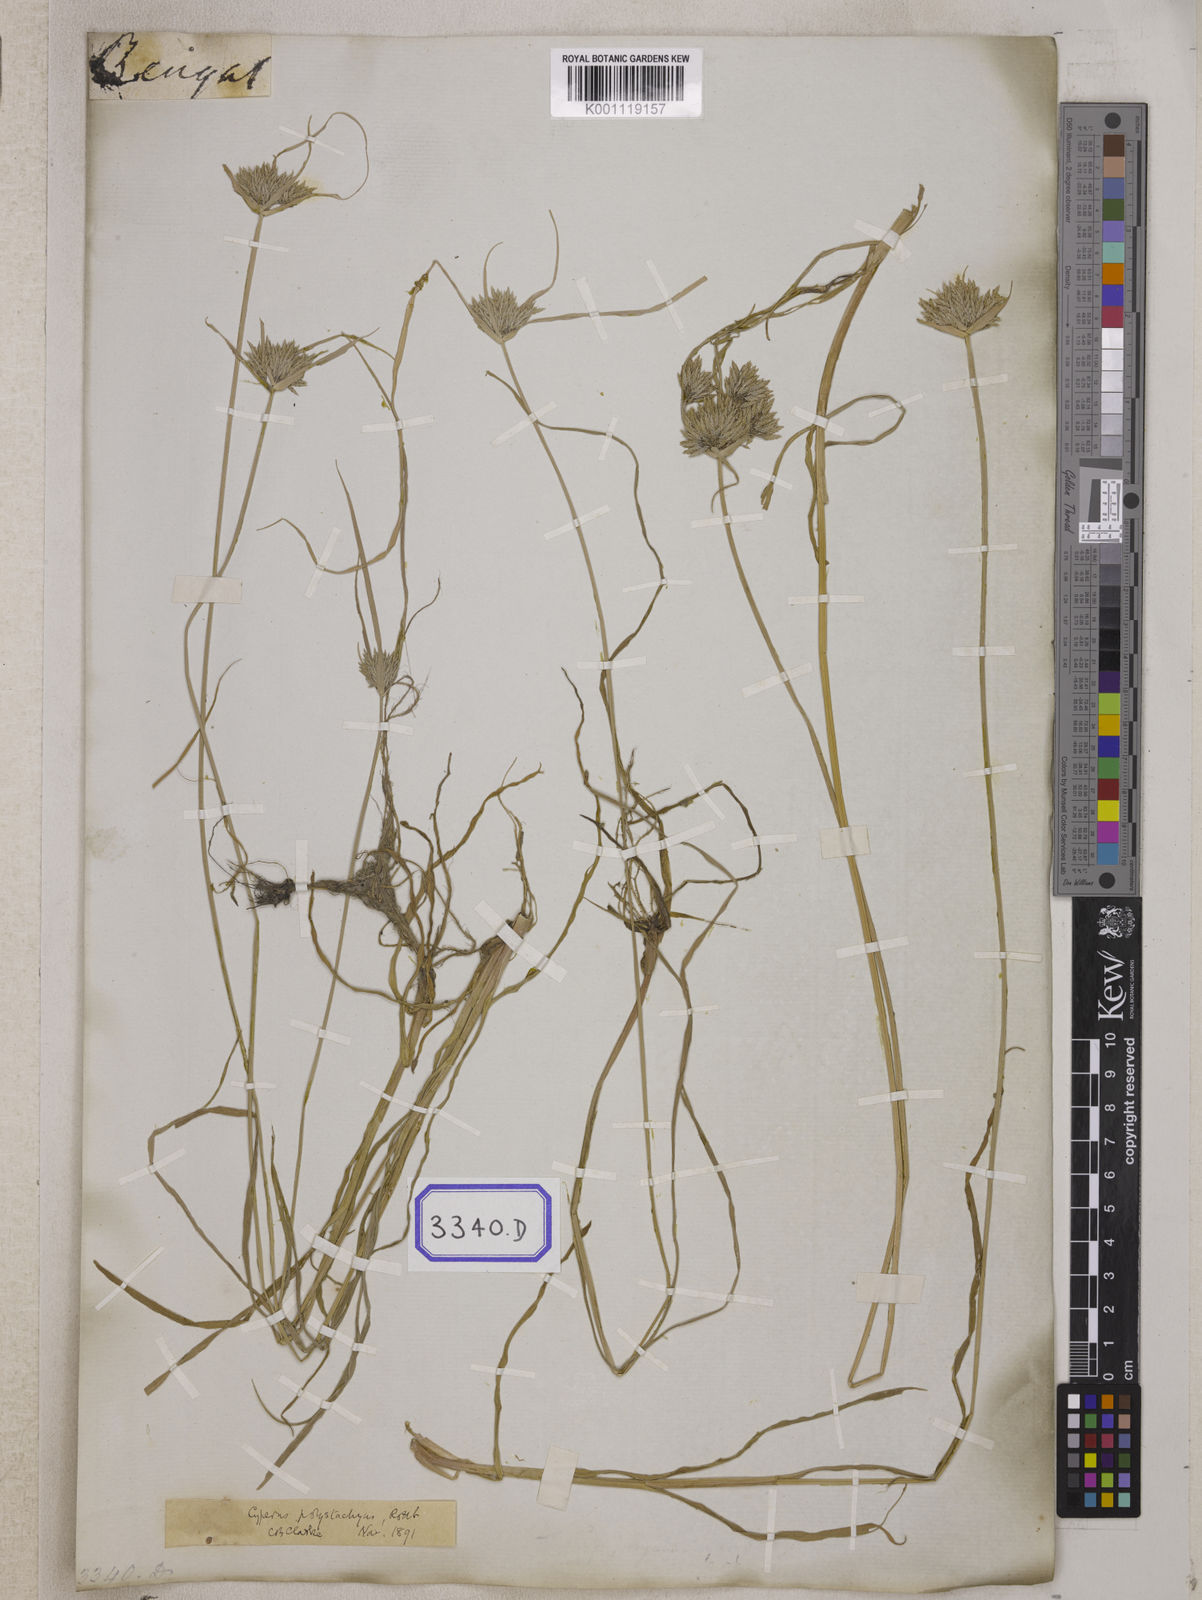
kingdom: Plantae
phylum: Tracheophyta
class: Liliopsida
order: Poales
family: Cyperaceae
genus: Cyperus
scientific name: Cyperus
